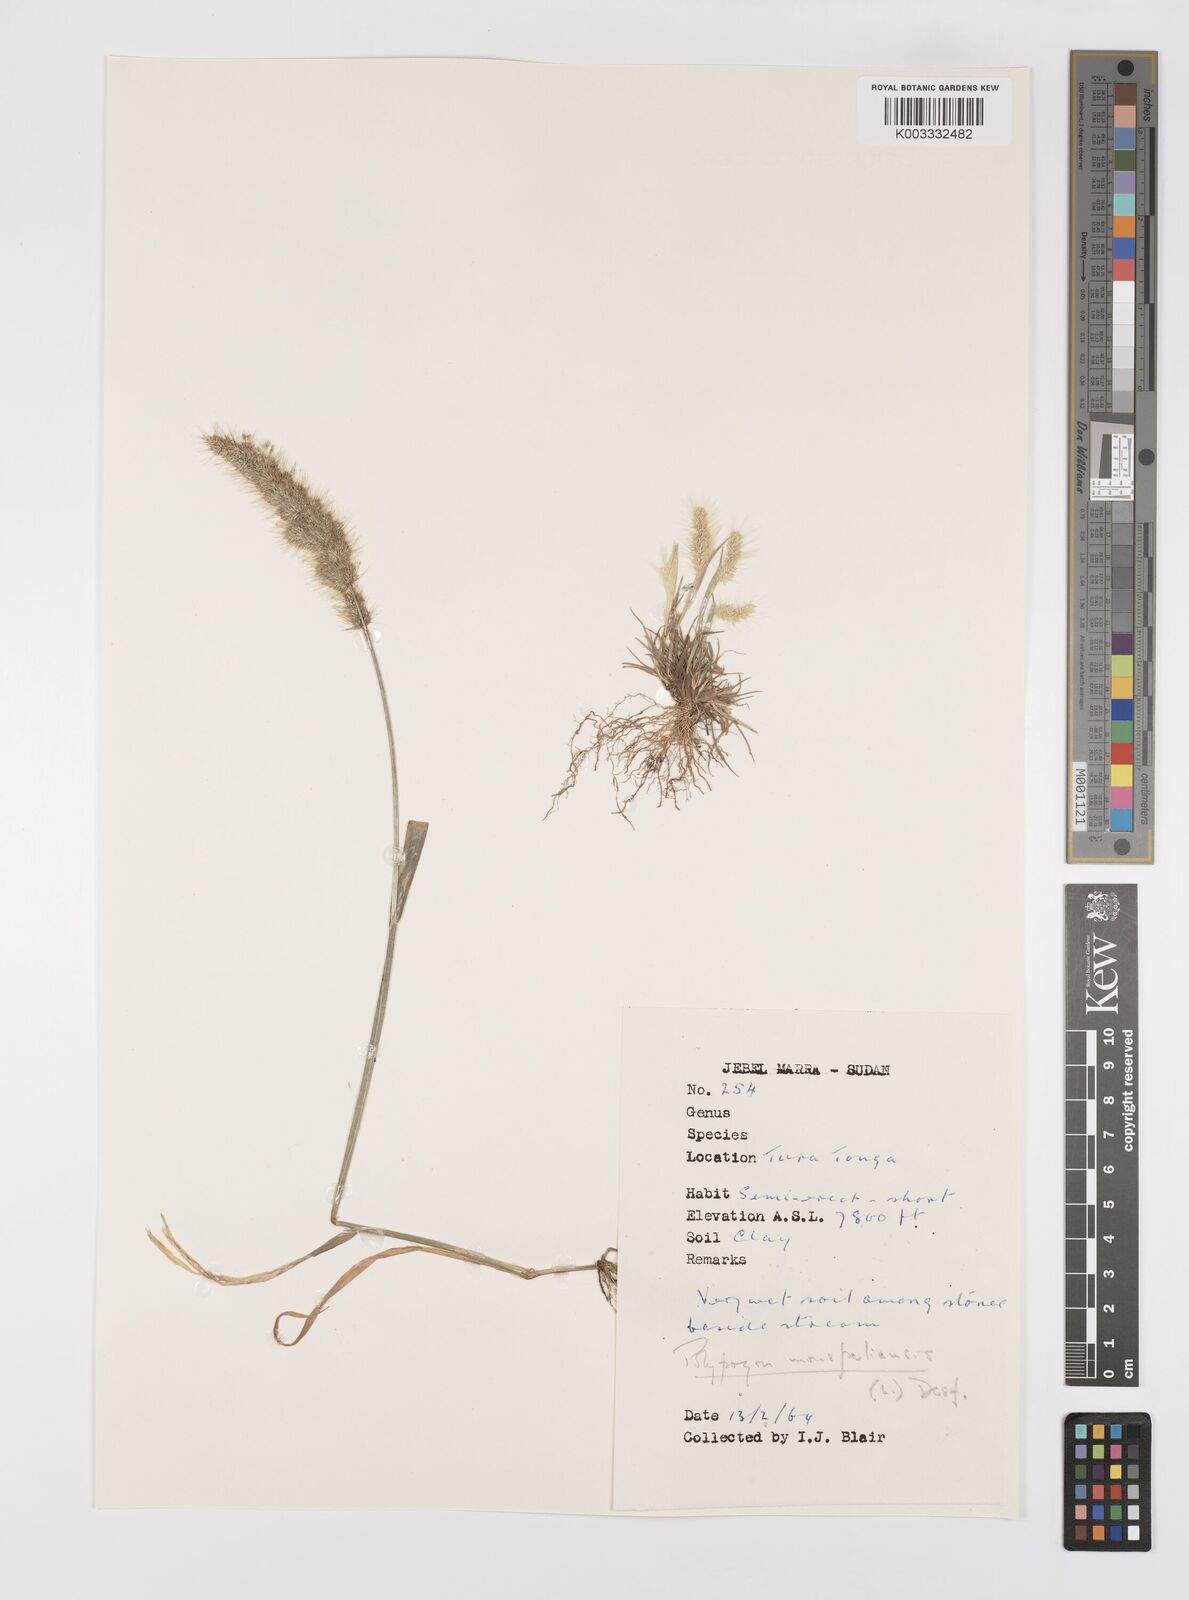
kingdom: Plantae
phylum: Tracheophyta
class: Liliopsida
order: Poales
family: Poaceae
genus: Polypogon
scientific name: Polypogon monspeliensis
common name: Annual rabbitsfoot grass
